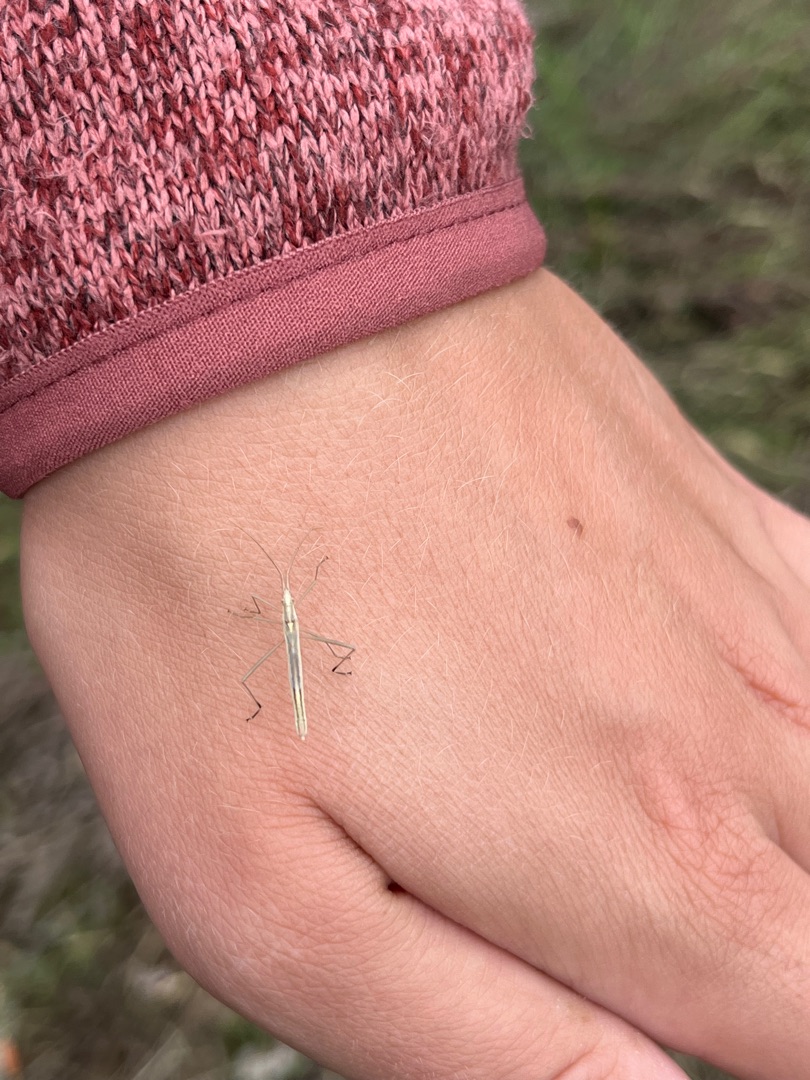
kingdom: Animalia
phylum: Arthropoda
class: Insecta
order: Hemiptera
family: Rhopalidae
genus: Chorosoma
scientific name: Chorosoma schillingii
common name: Lang stråtæge
